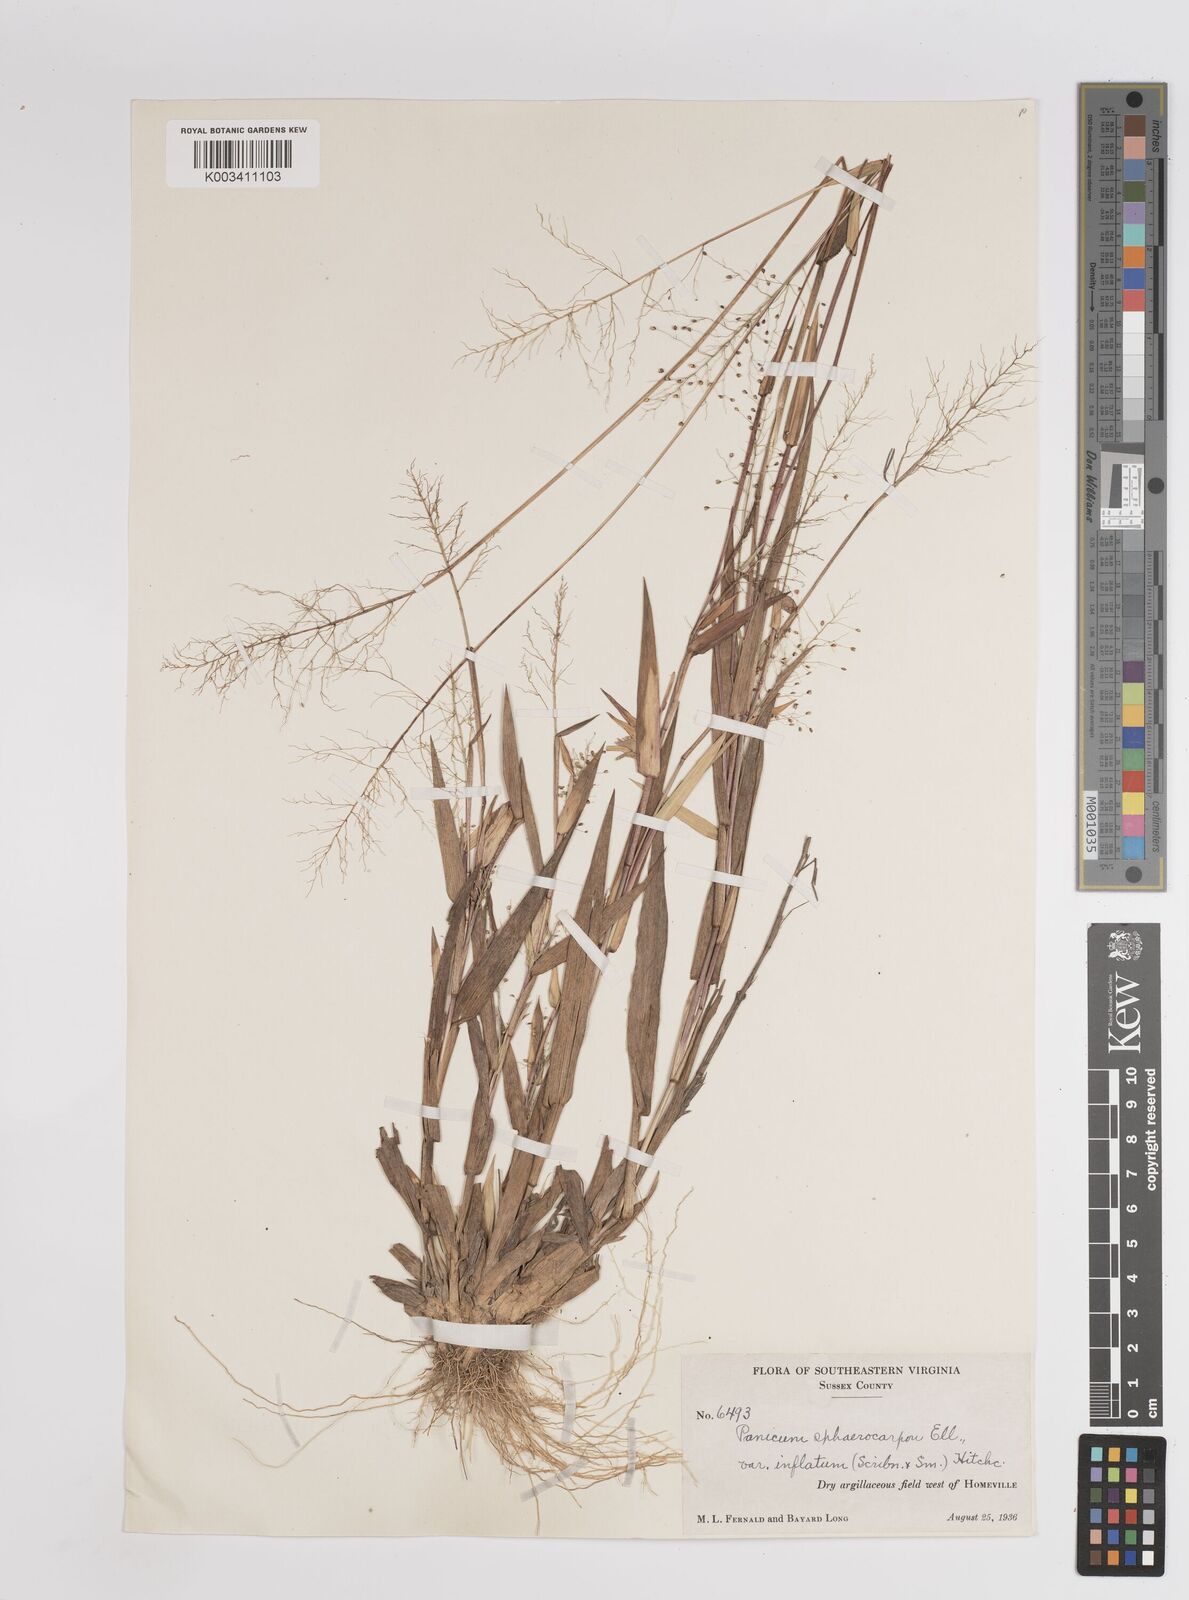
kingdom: Plantae
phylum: Tracheophyta
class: Liliopsida
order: Poales
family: Poaceae
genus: Dichanthelium
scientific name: Dichanthelium sphaerocarpon
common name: Round-fruited panicgrass
